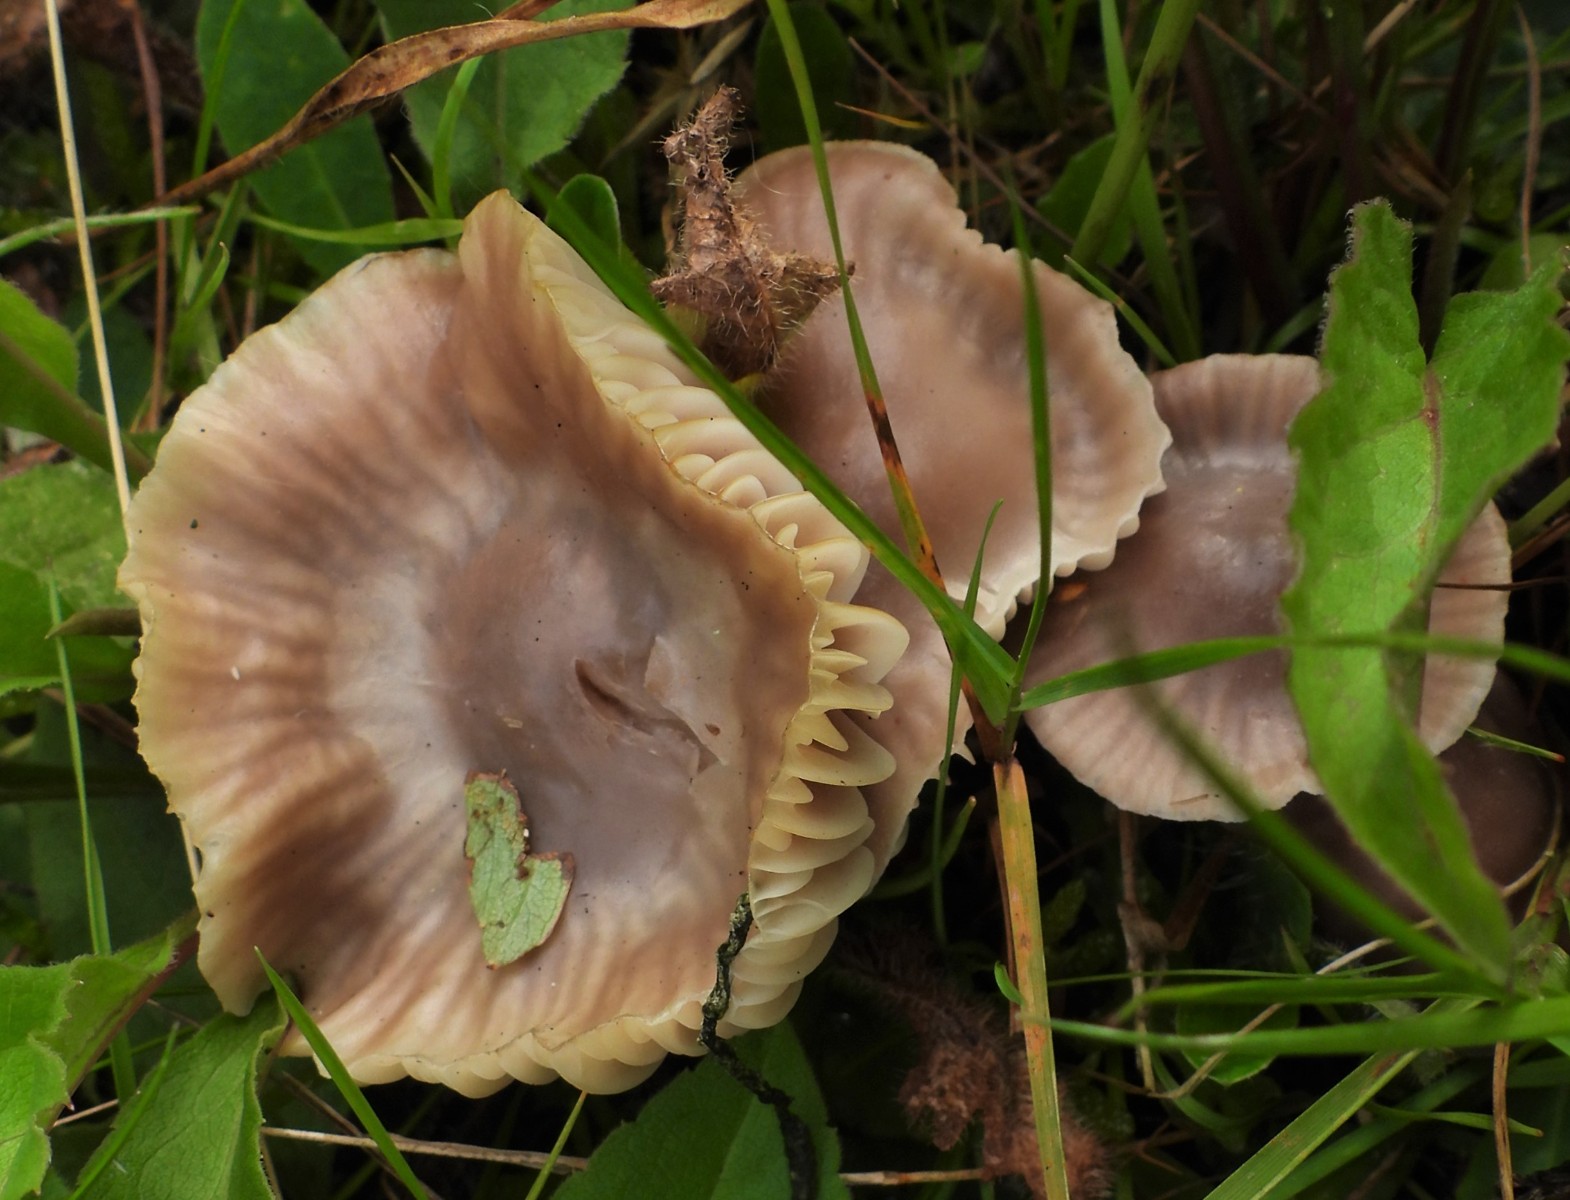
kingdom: Fungi
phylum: Basidiomycota
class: Agaricomycetes
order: Agaricales
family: Hygrophoraceae
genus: Cuphophyllus
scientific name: Cuphophyllus flavipes
